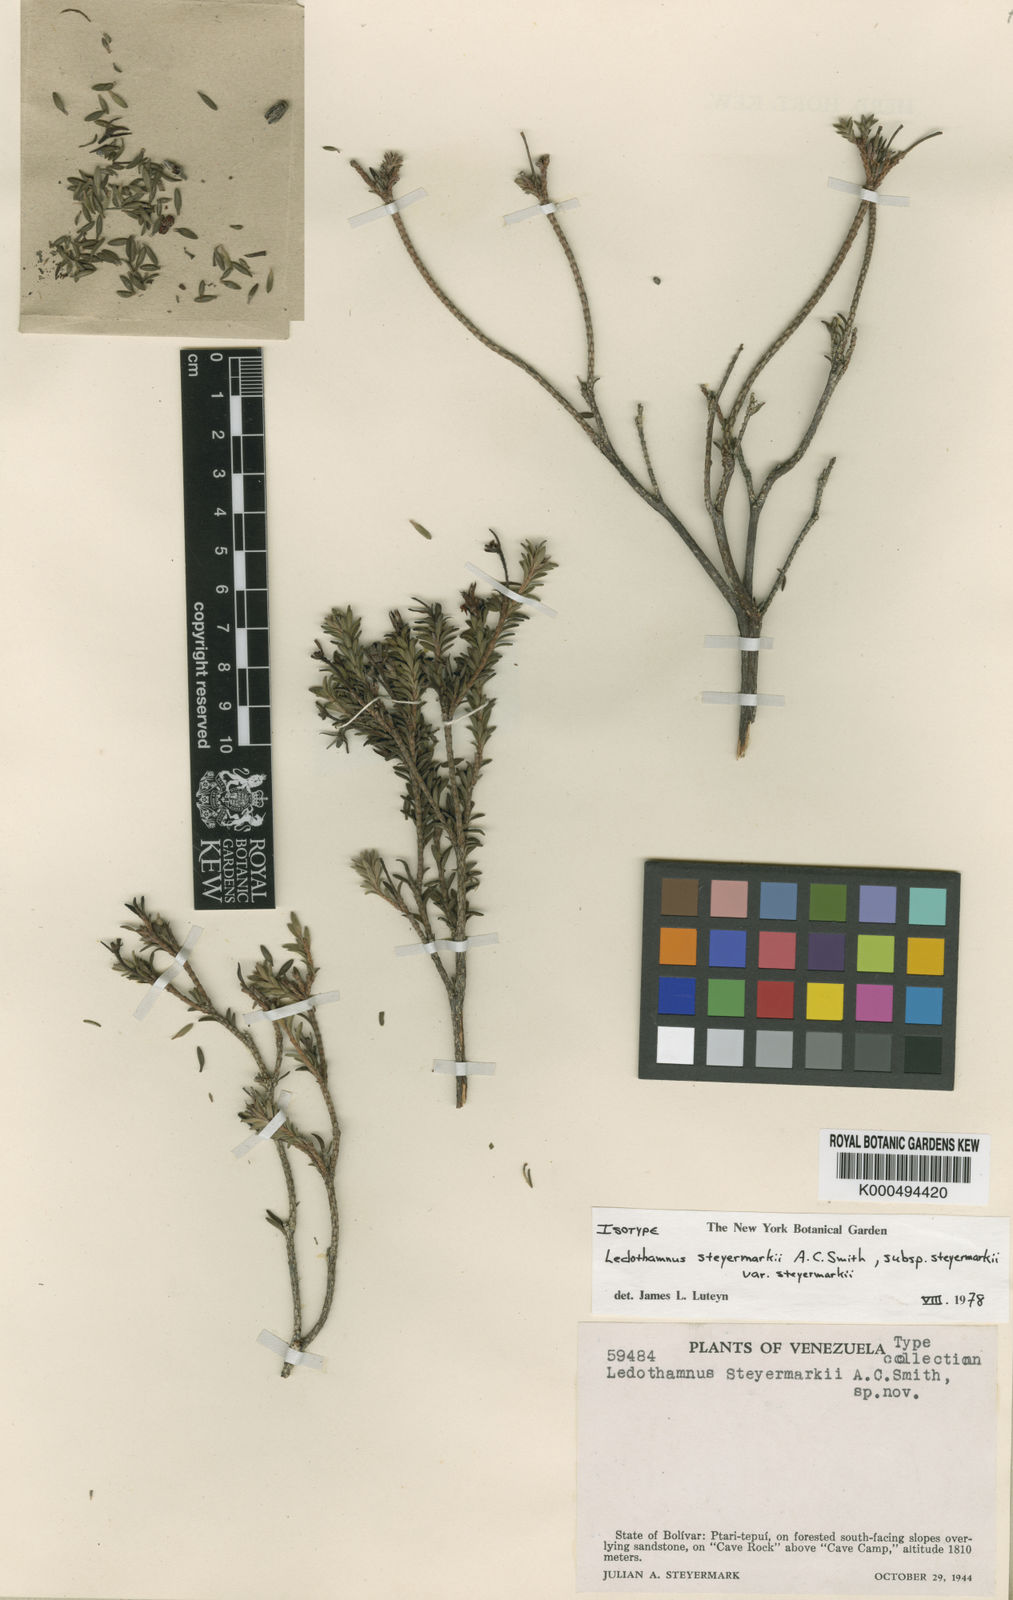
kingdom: Plantae
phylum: Tracheophyta
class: Magnoliopsida
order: Ericales
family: Ericaceae
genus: Ledothamnus
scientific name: Ledothamnus guyanensis
